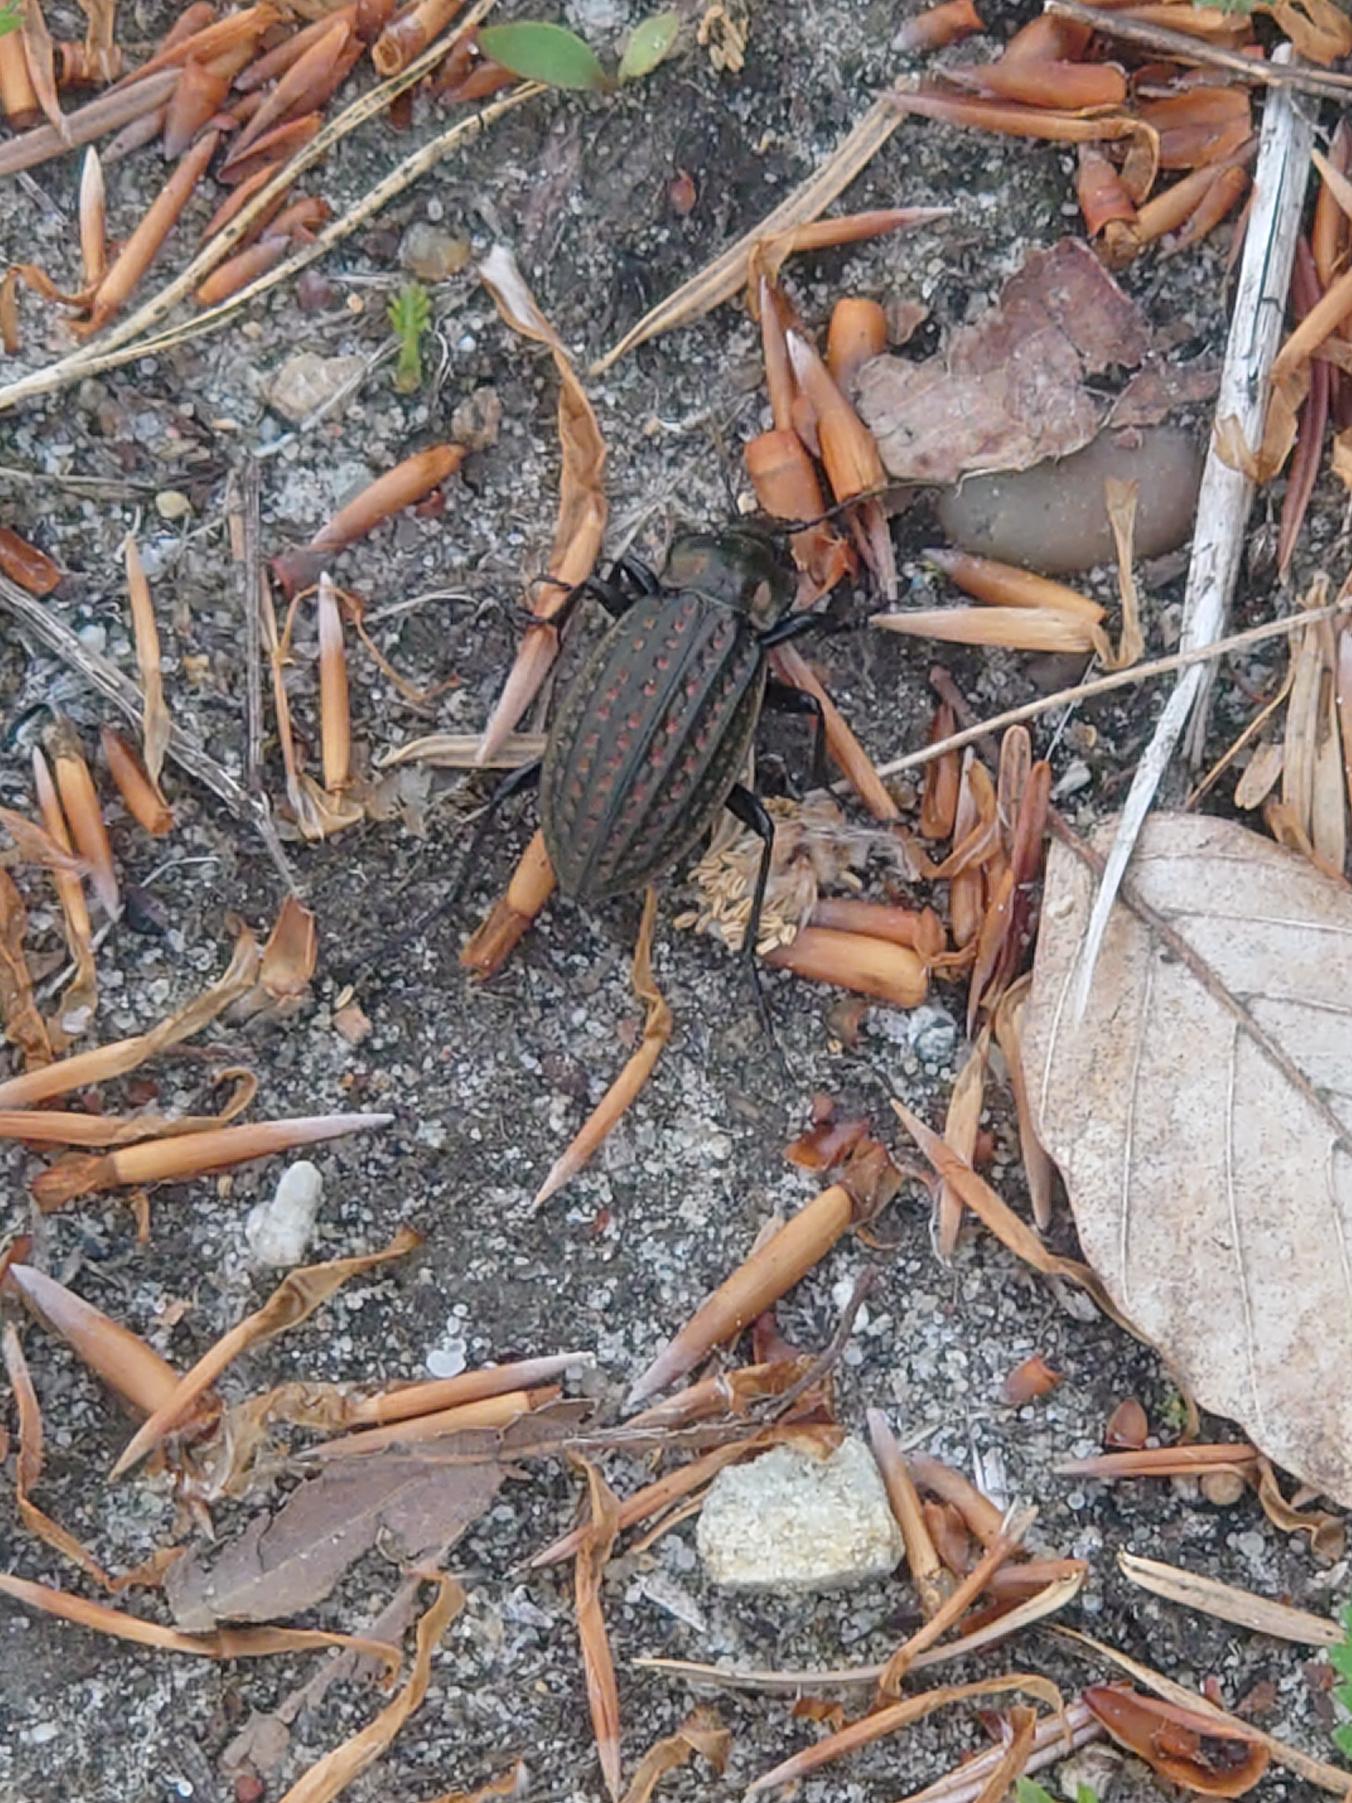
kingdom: Animalia
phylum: Arthropoda
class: Insecta
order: Coleoptera
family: Carabidae
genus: Carabus
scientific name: Carabus clatratus
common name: Dyndløber
